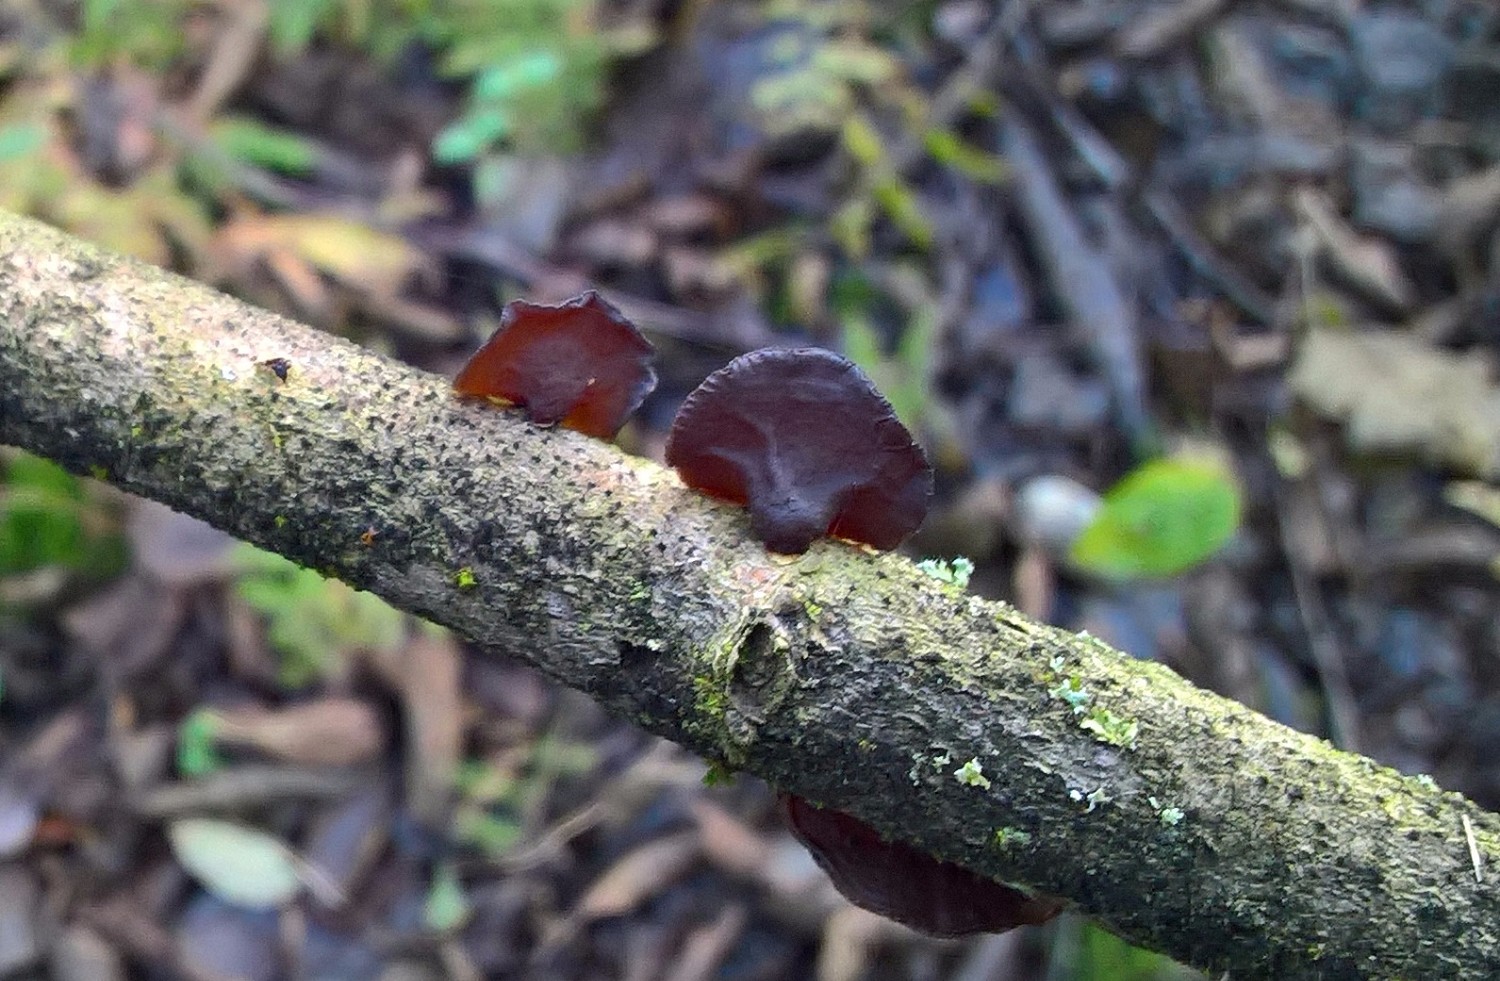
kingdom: Fungi
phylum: Basidiomycota
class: Agaricomycetes
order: Auriculariales
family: Auriculariaceae
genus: Exidia
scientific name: Exidia recisa
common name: pile-bævretop
